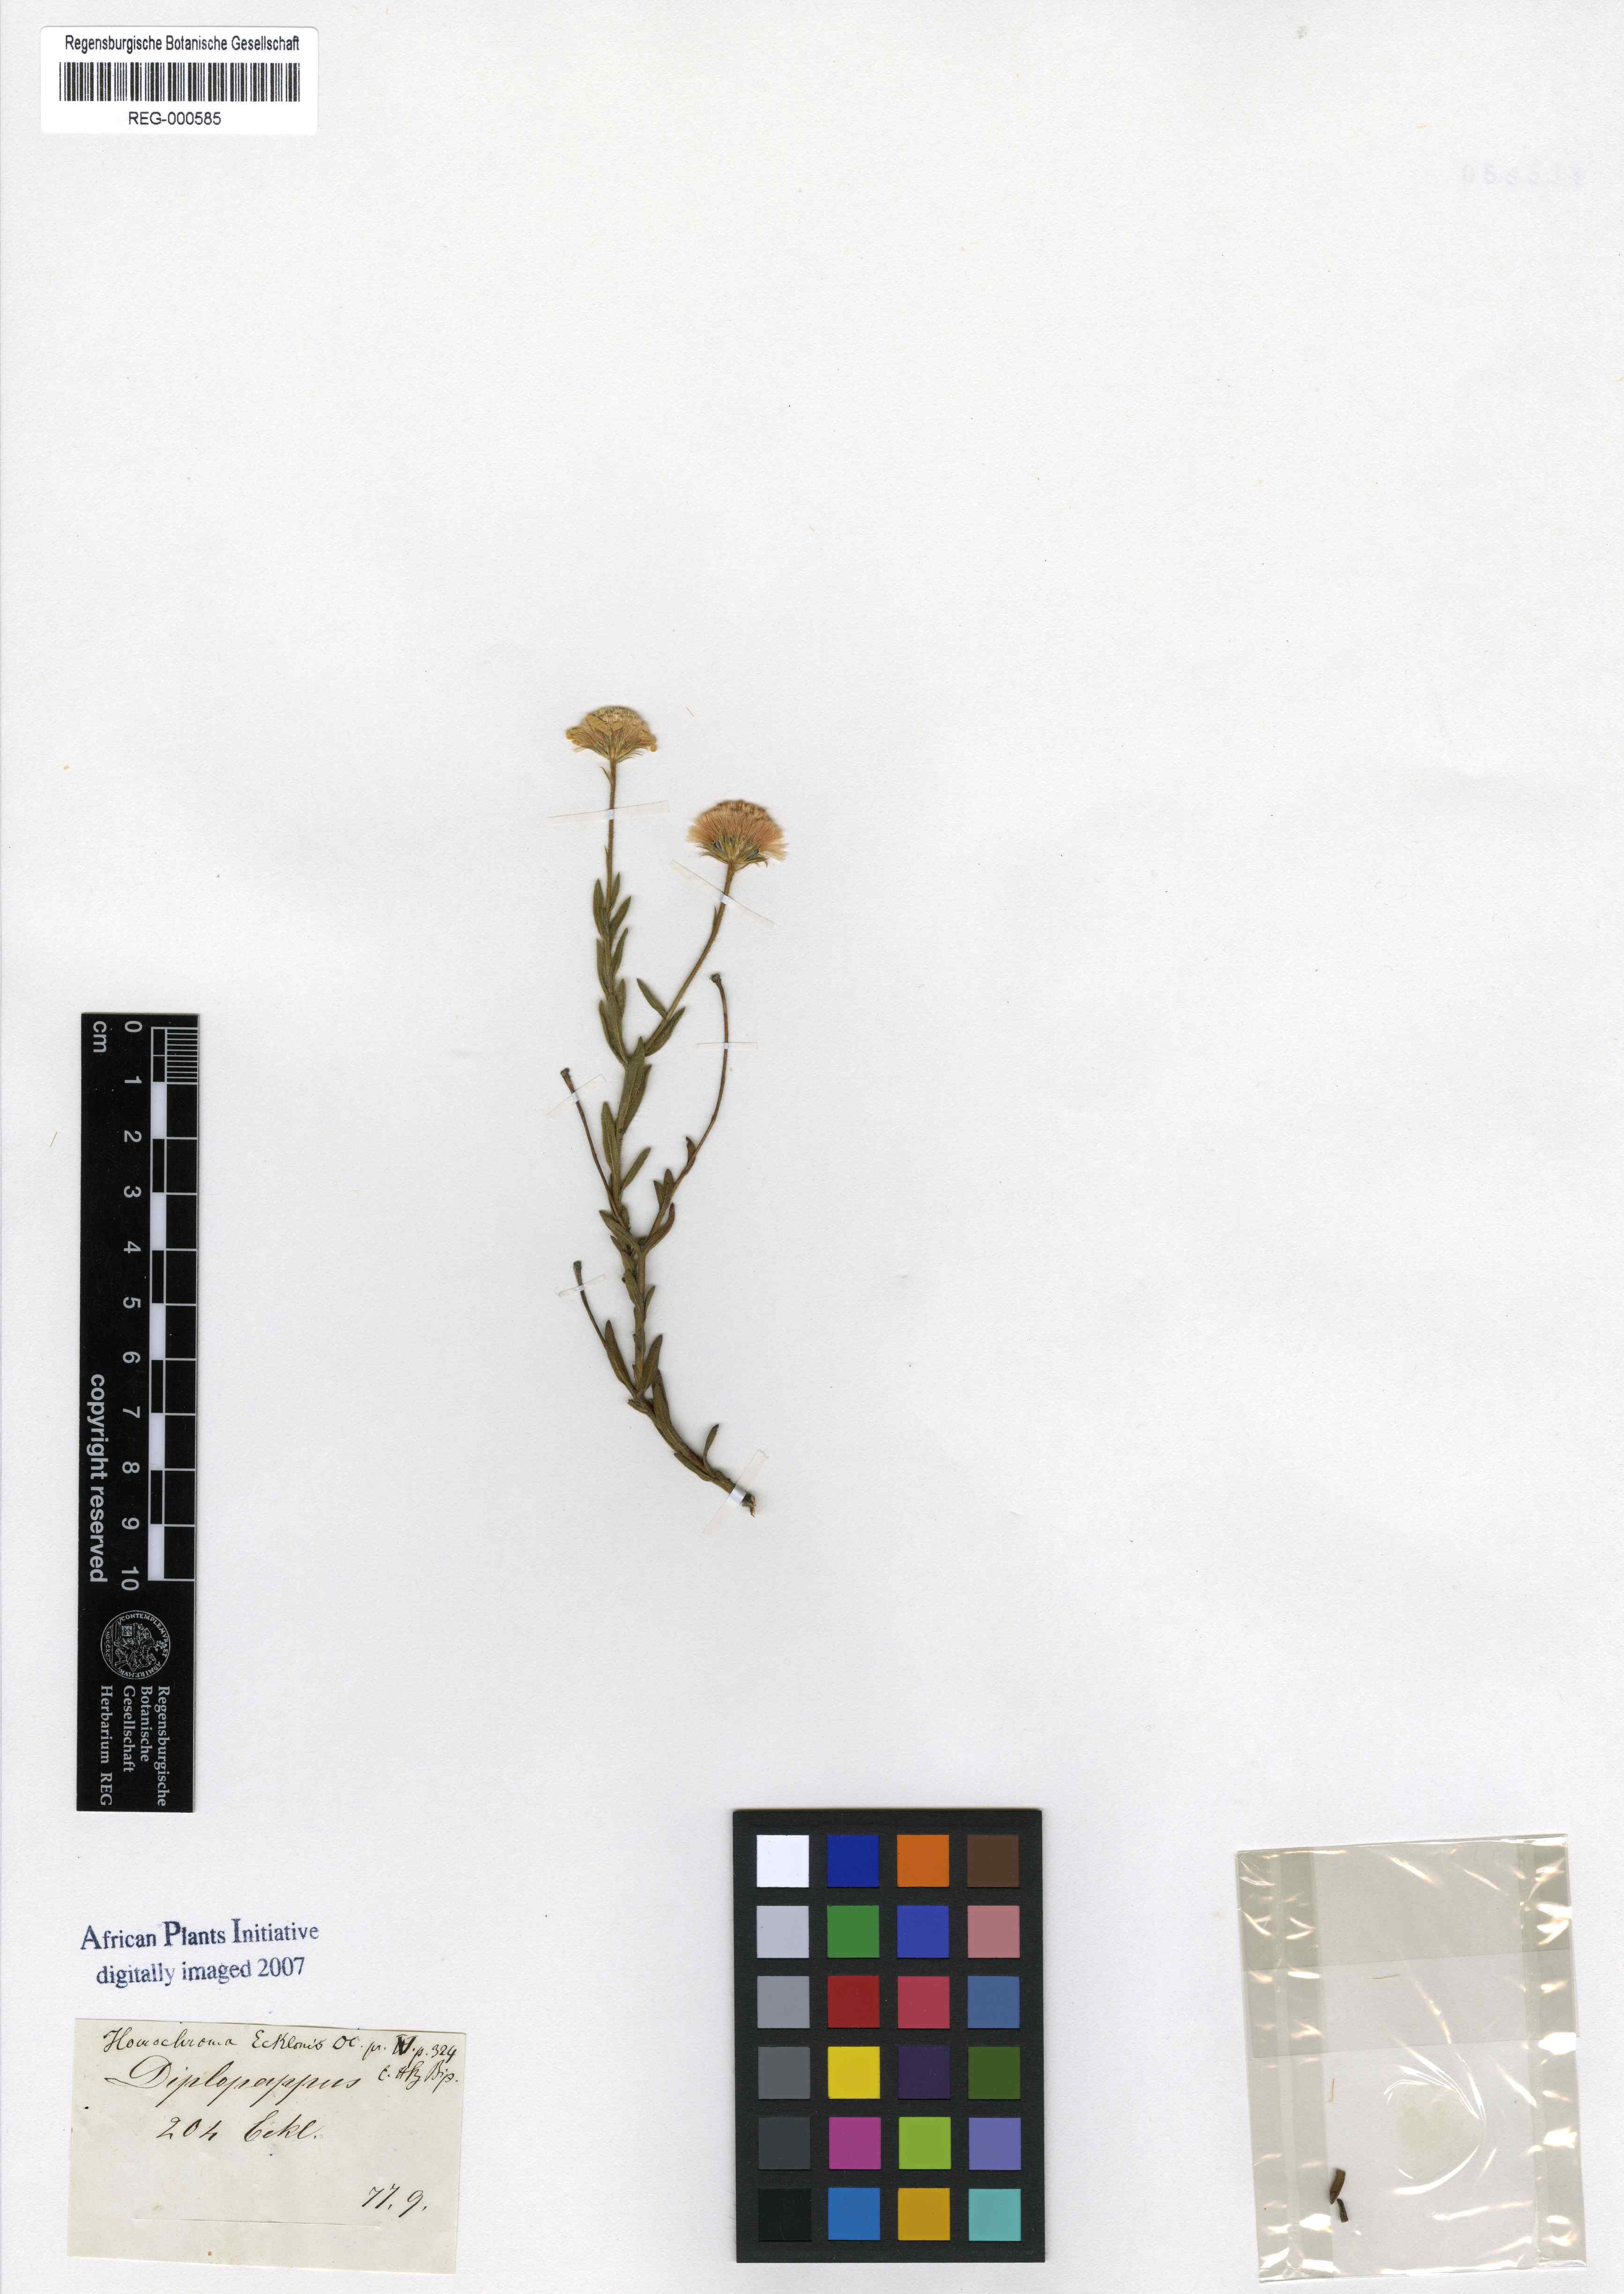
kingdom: Plantae
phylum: Tracheophyta
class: Magnoliopsida
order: Asterales
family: Asteraceae
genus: Zyrphelis
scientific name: Zyrphelis ecklonis
